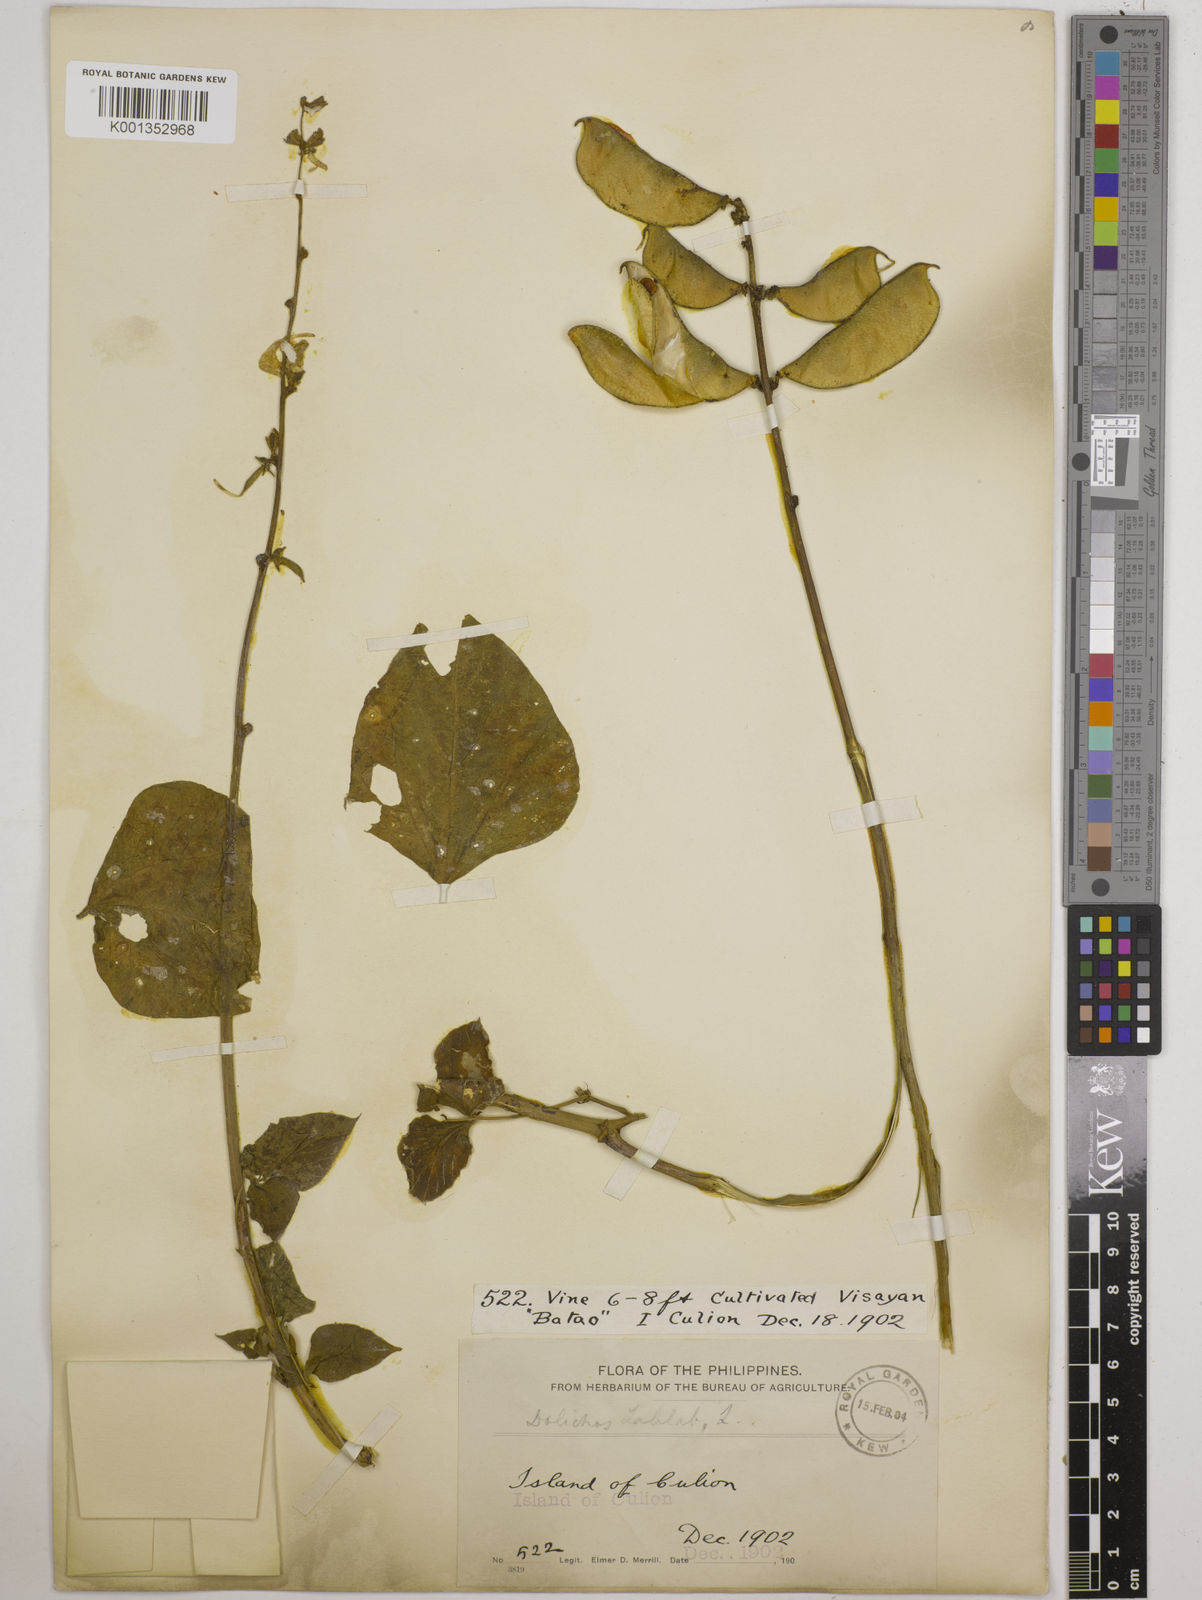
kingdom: Plantae
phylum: Tracheophyta
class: Magnoliopsida
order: Fabales
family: Fabaceae
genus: Lablab
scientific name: Lablab purpureus
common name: Lablab-bean
